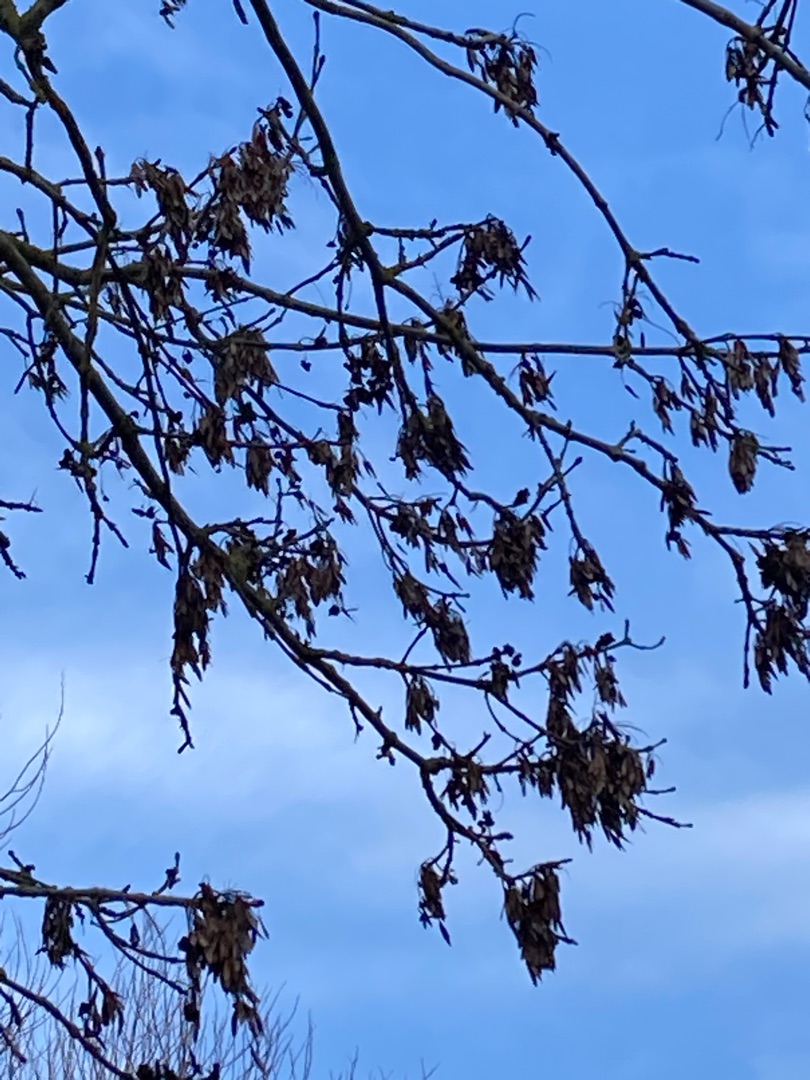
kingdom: Plantae
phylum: Tracheophyta
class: Magnoliopsida
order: Lamiales
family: Oleaceae
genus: Fraxinus
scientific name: Fraxinus excelsior
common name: Ask
